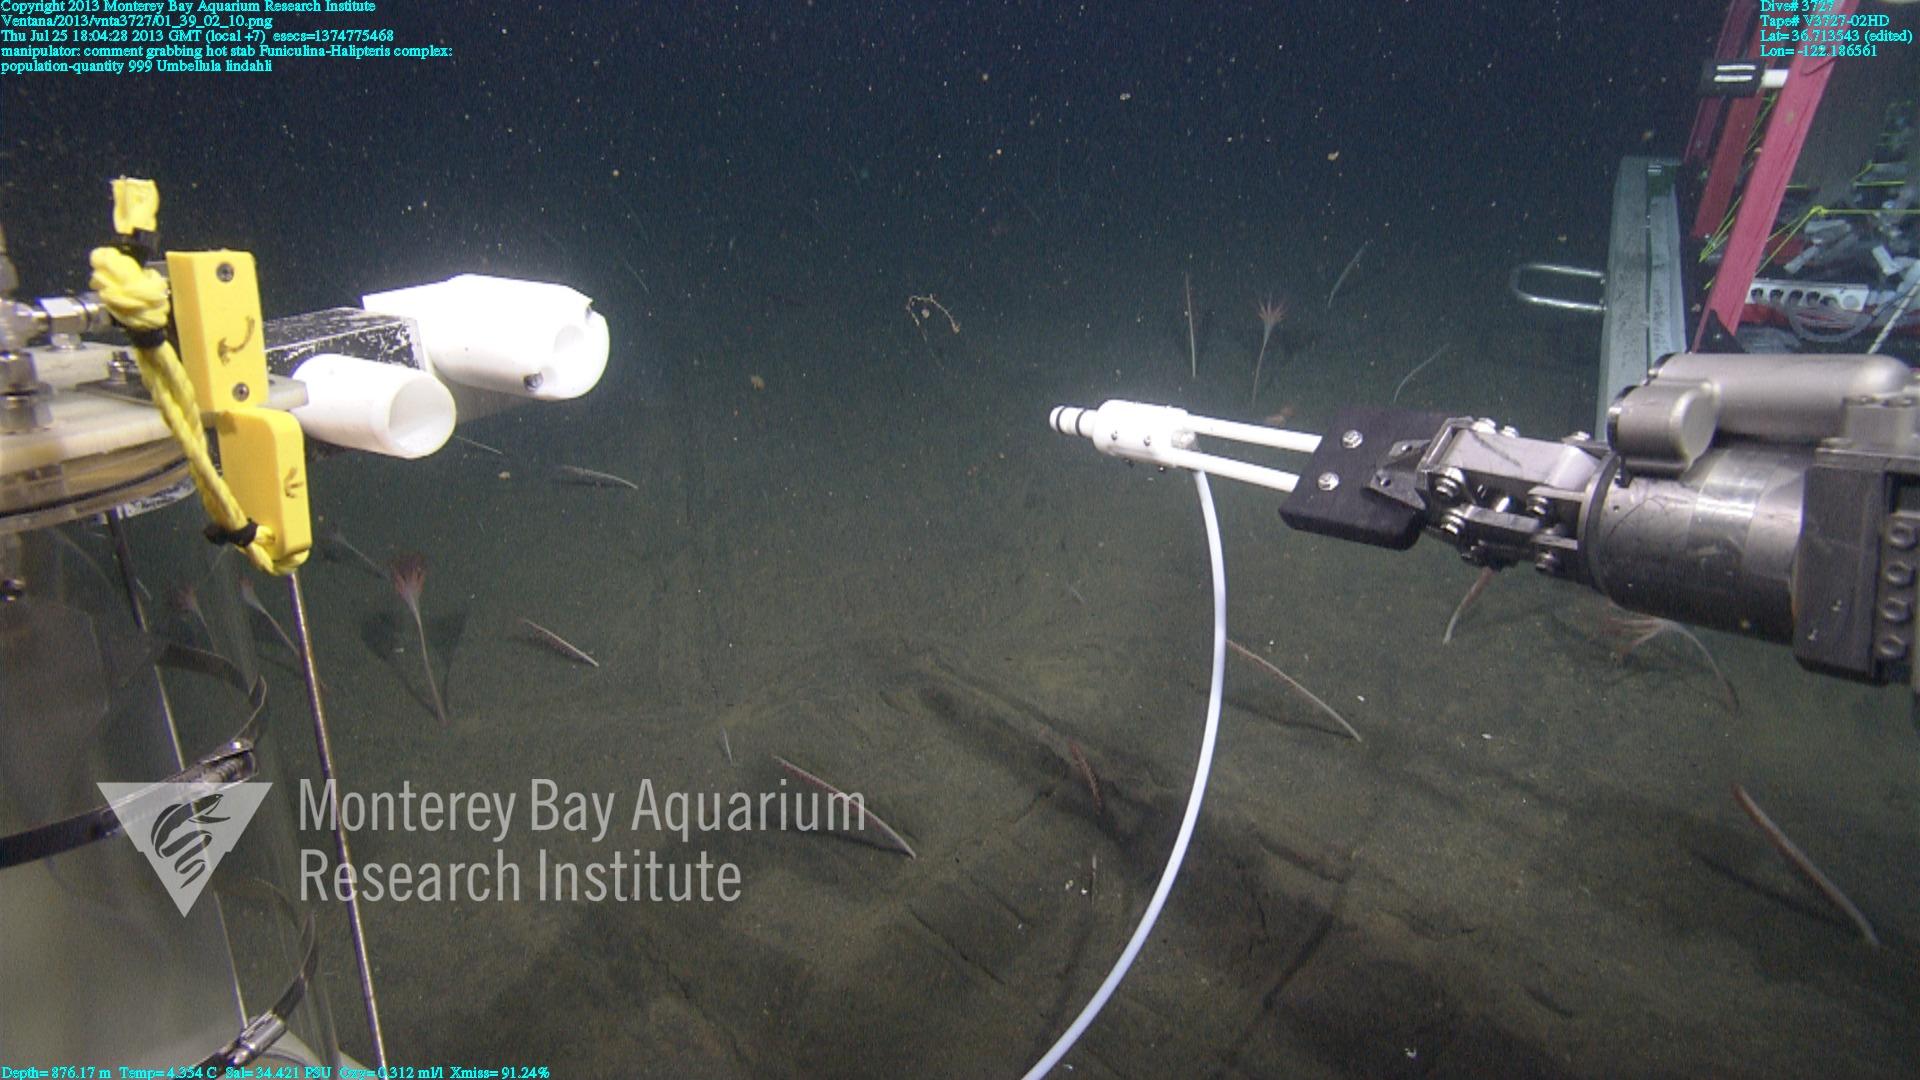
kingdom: Animalia
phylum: Cnidaria
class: Anthozoa
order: Scleralcyonacea
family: Umbellulidae
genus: Umbellula
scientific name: Umbellula lindahli
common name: Lindahl's droopy sea pen
